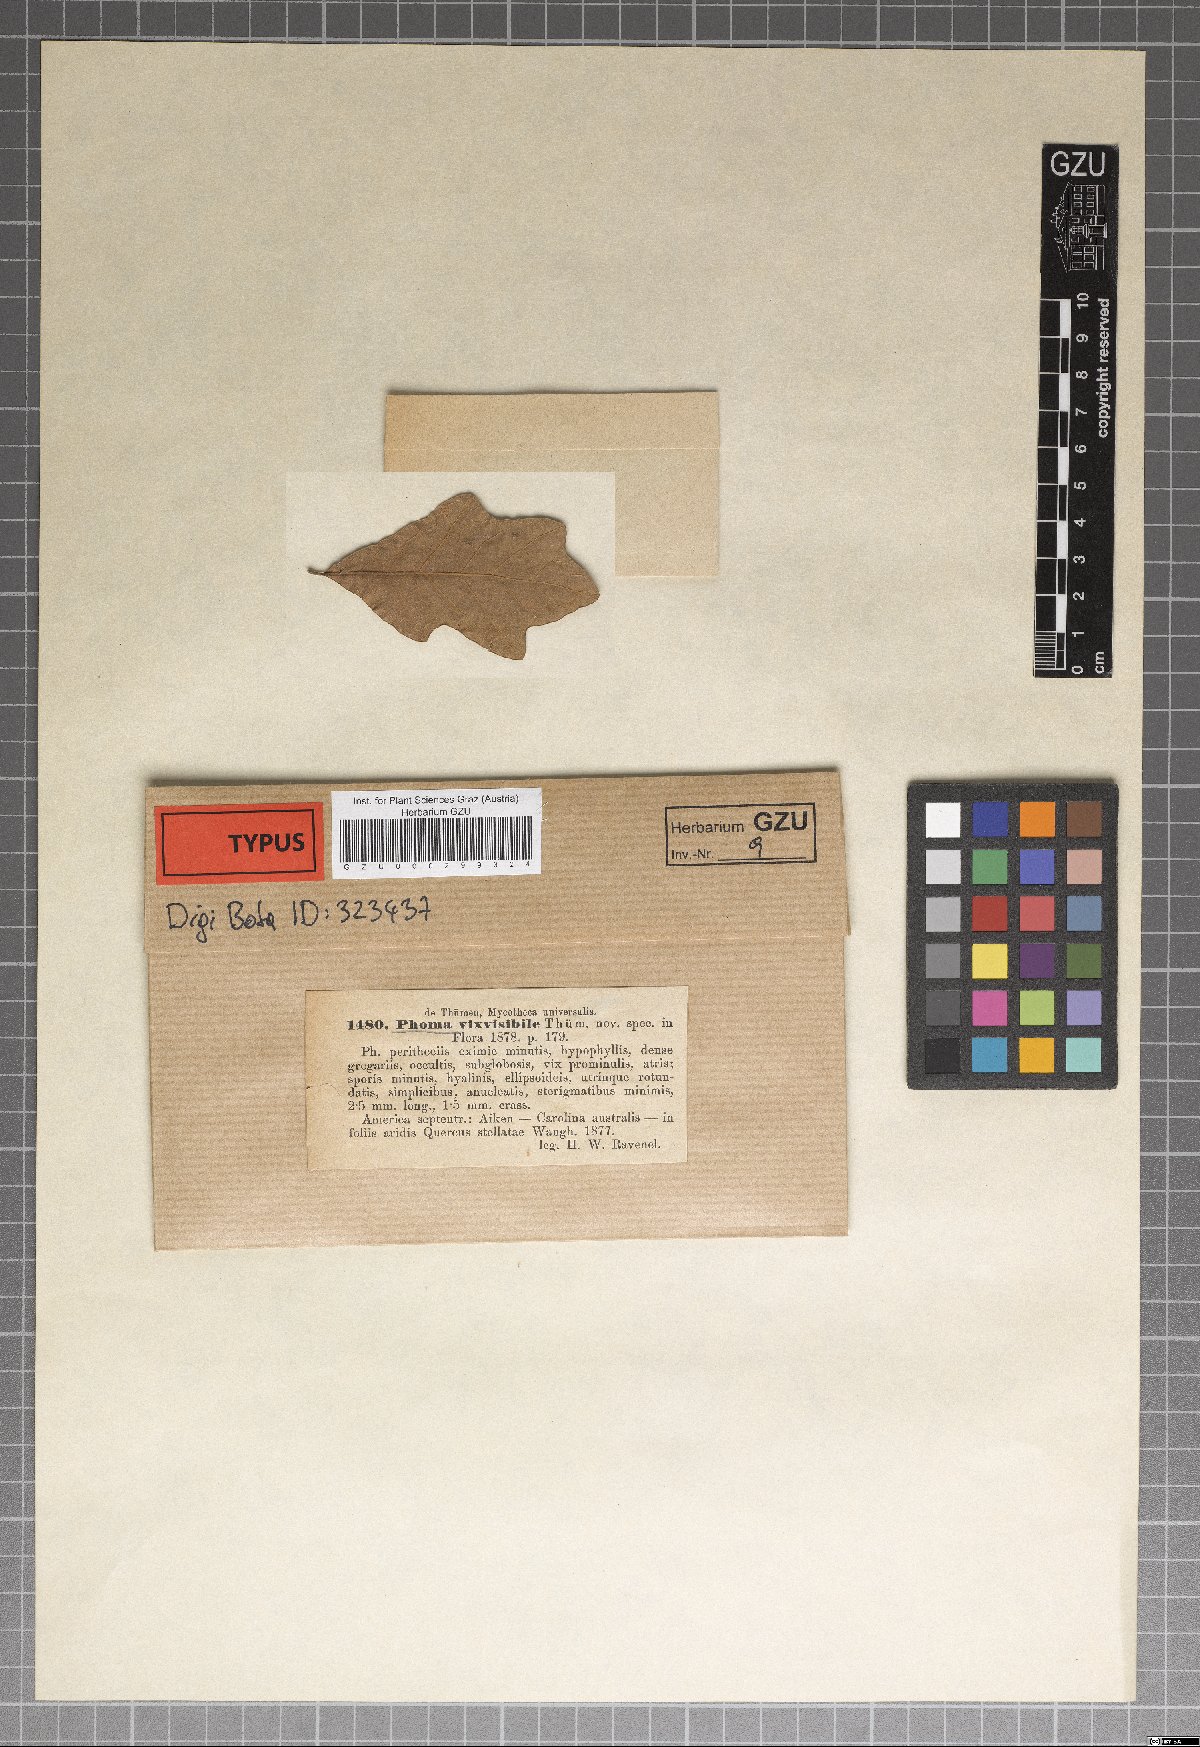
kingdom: Fungi
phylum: Ascomycota
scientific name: Ascomycota
